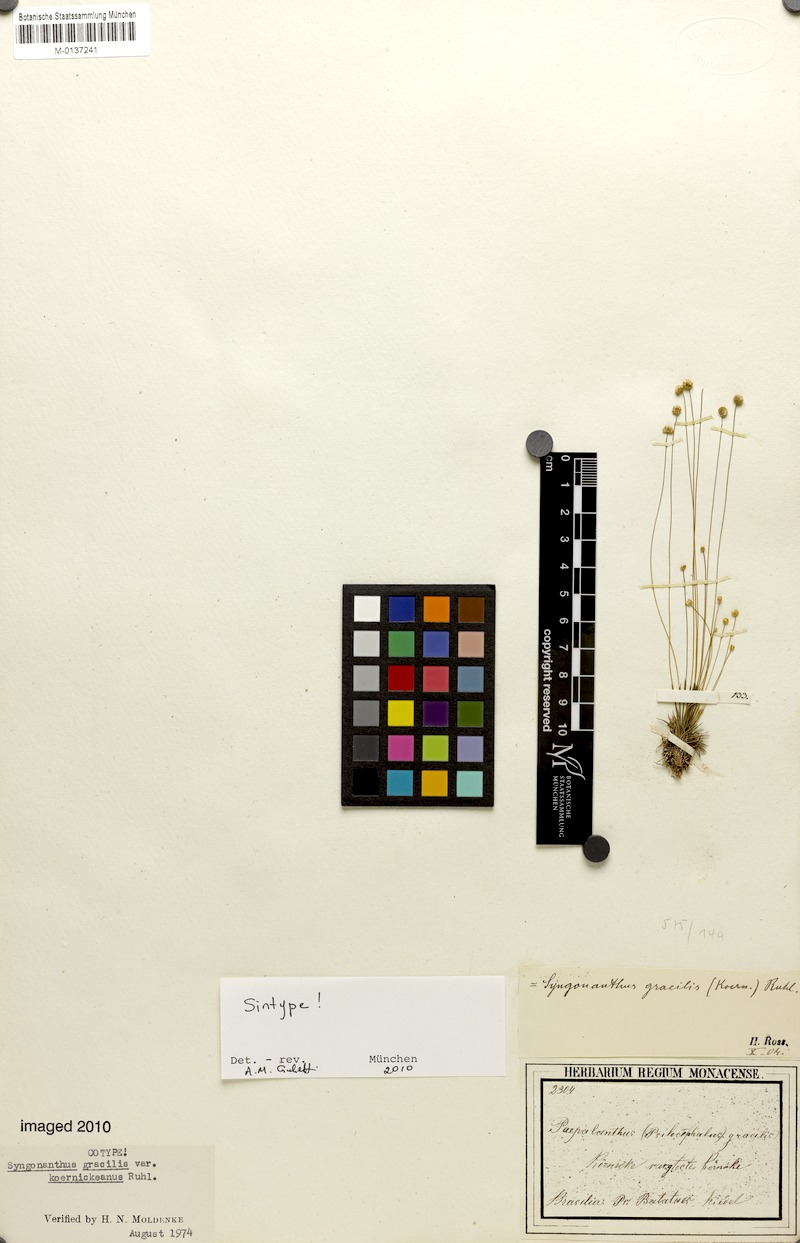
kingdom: Plantae
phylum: Tracheophyta
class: Liliopsida
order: Poales
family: Eriocaulaceae
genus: Syngonanthus
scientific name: Syngonanthus gracilis
